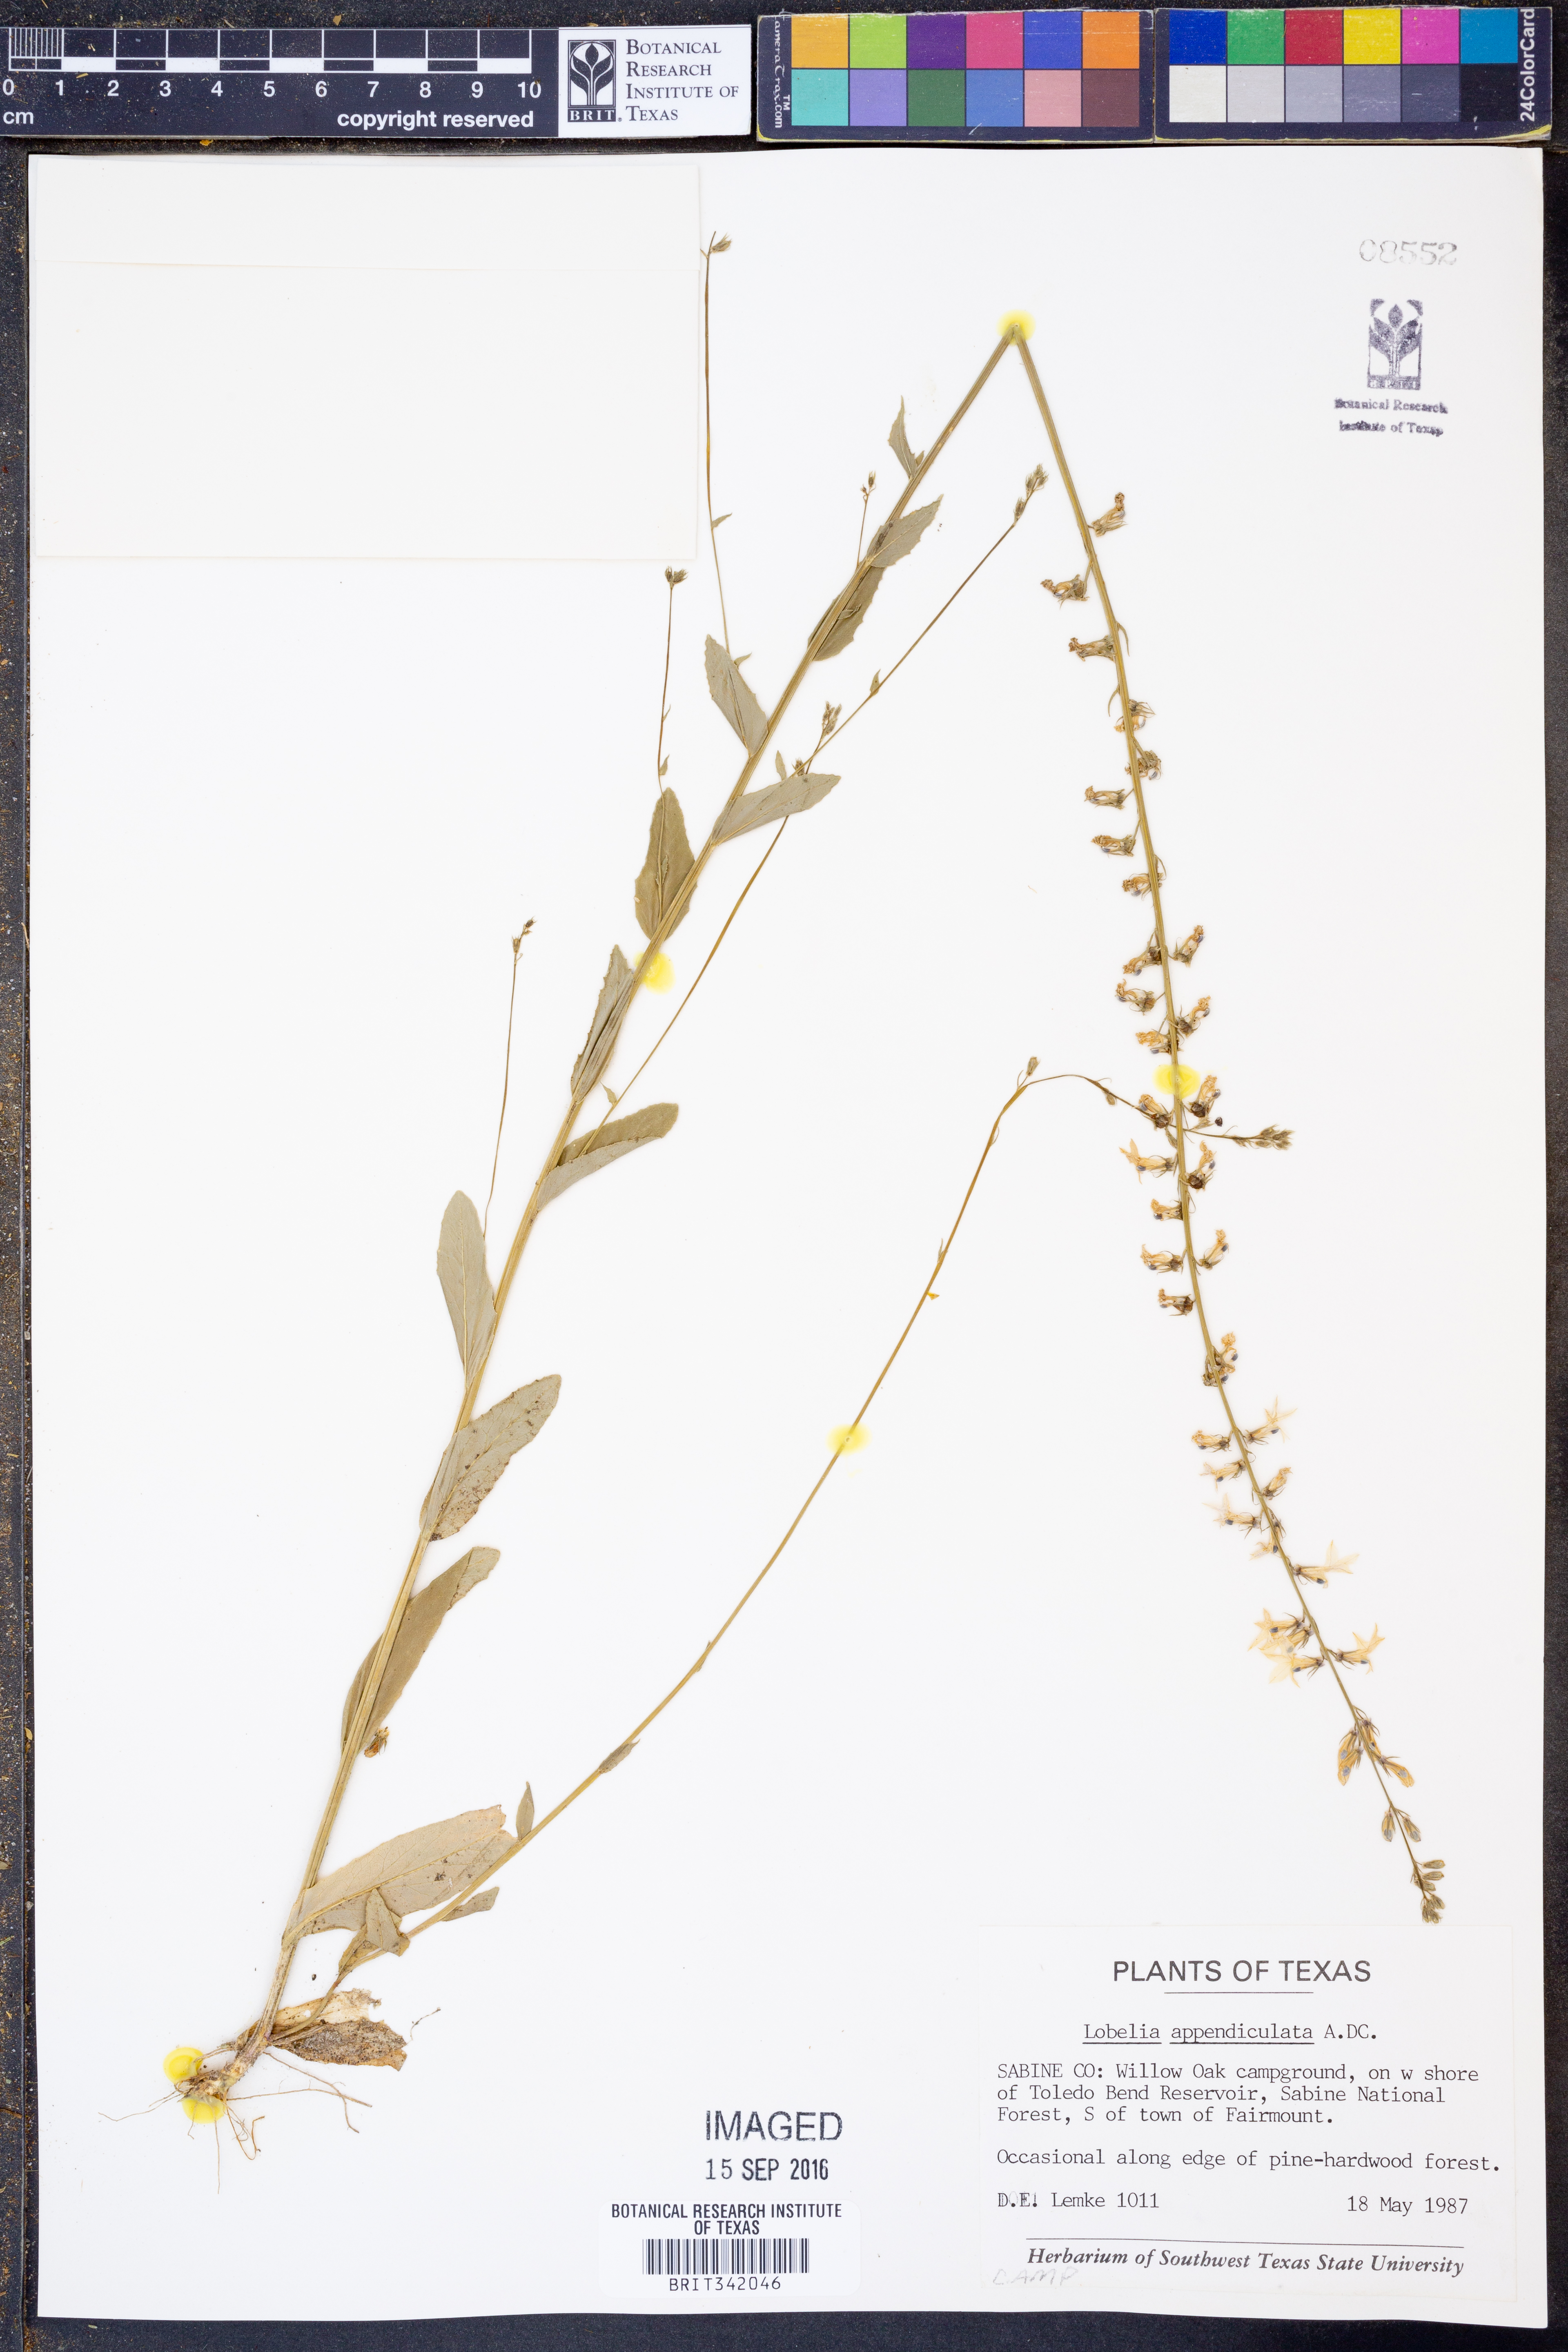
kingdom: Plantae
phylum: Tracheophyta
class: Magnoliopsida
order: Asterales
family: Campanulaceae
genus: Lobelia
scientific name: Lobelia appendiculata
